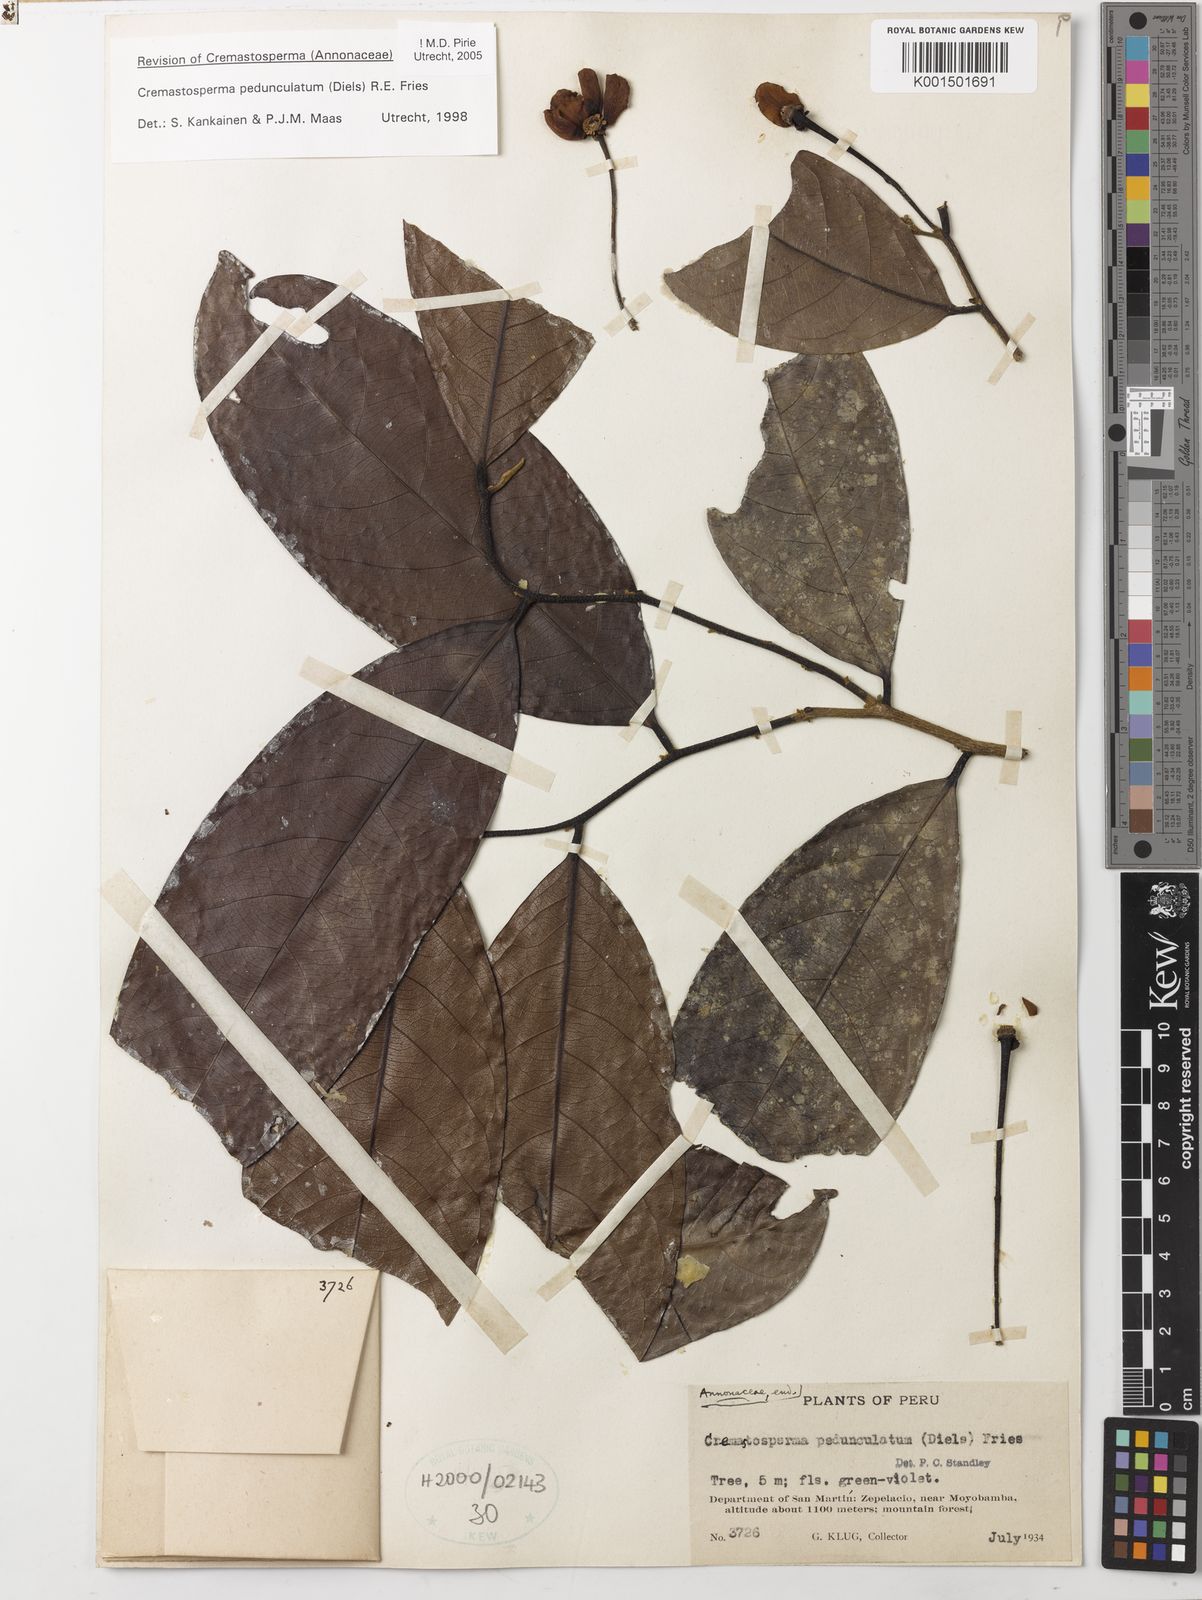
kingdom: Plantae
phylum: Tracheophyta
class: Magnoliopsida
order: Magnoliales
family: Annonaceae
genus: Cremastosperma
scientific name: Cremastosperma pedunculatum
